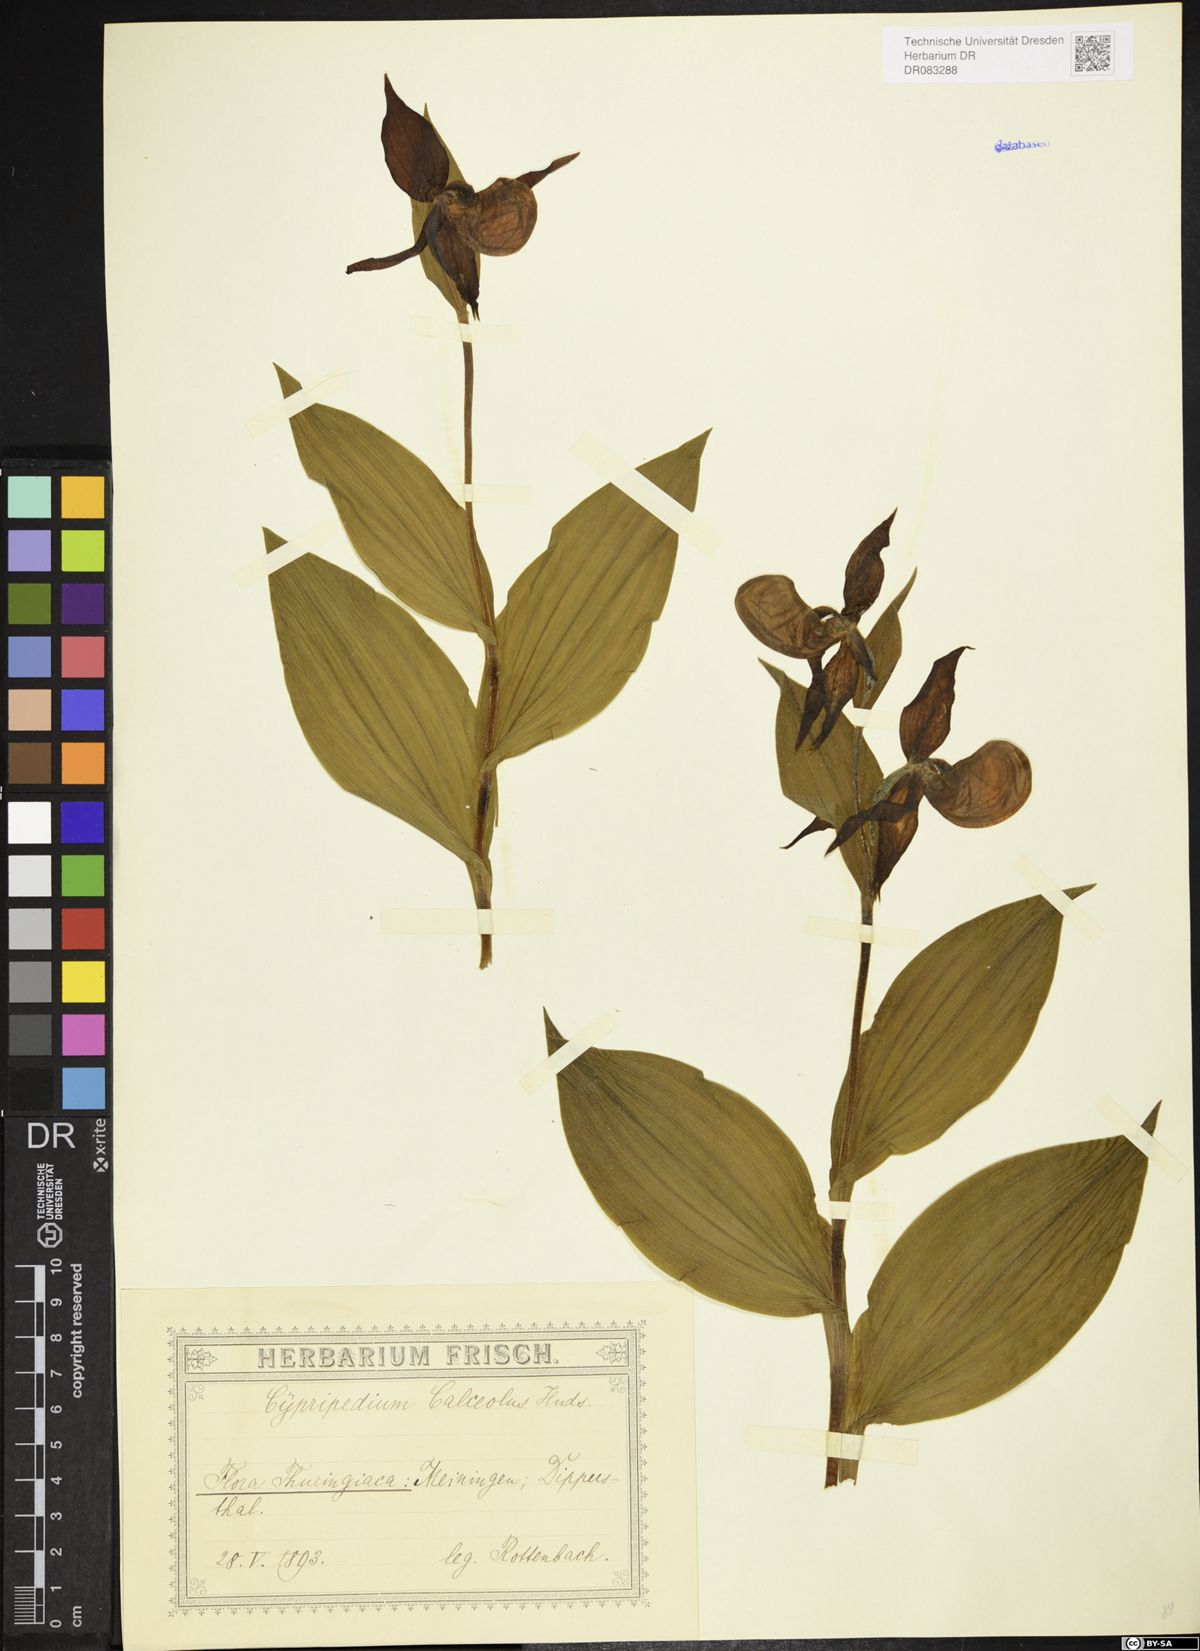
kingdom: Plantae
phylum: Tracheophyta
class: Liliopsida
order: Asparagales
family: Orchidaceae
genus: Cypripedium
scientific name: Cypripedium calceolus
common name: Lady's-slipper
